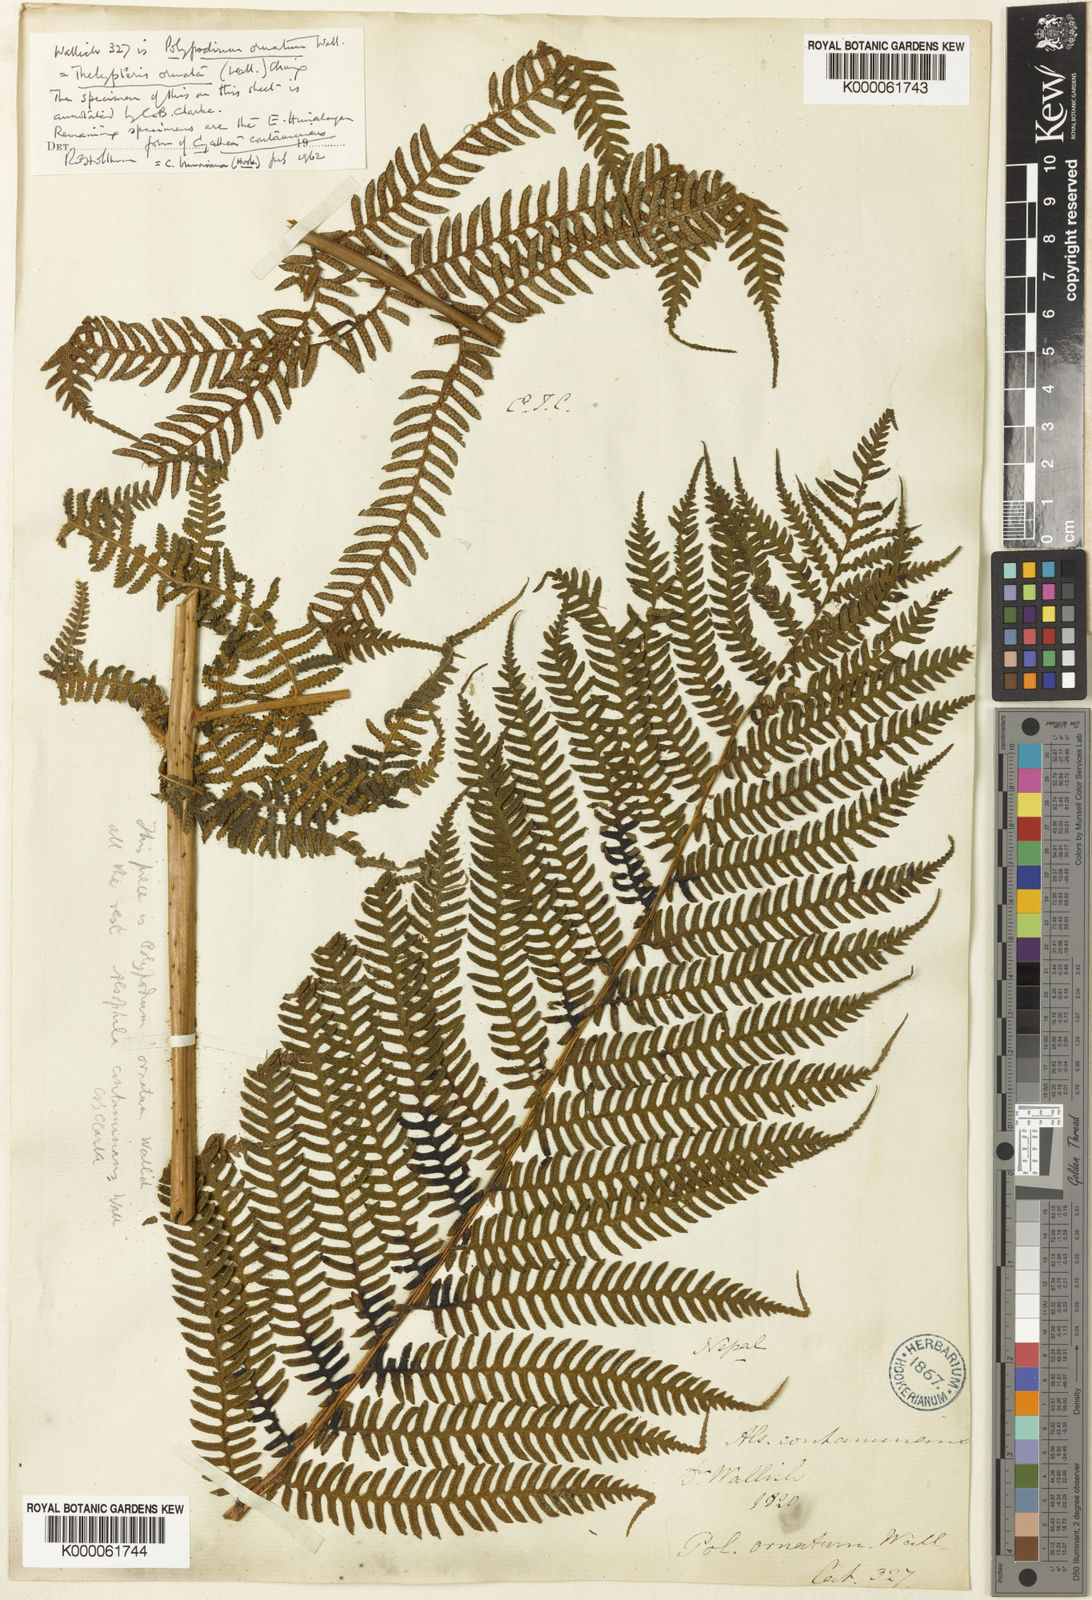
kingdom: Plantae
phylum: Tracheophyta
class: Polypodiopsida
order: Cyatheales
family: Cyatheaceae
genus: Sphaeropteris
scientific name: Sphaeropteris
